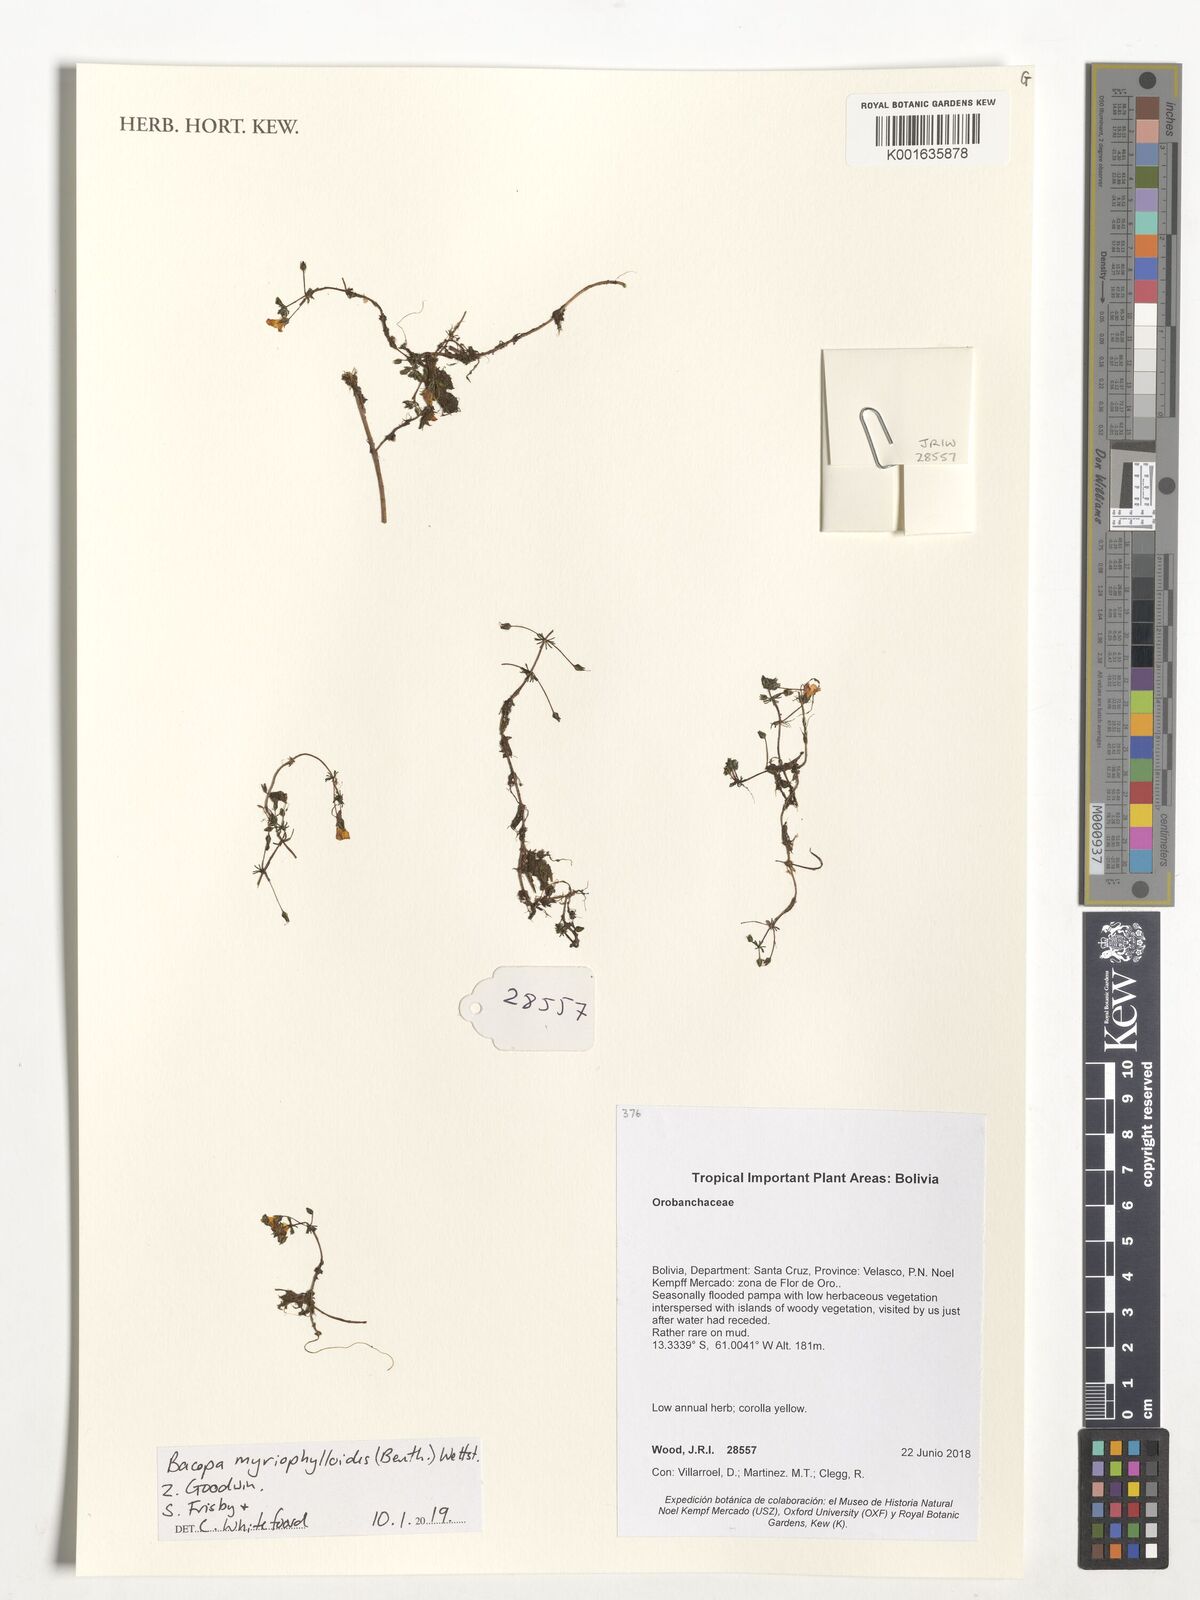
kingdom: Plantae
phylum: Tracheophyta
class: Magnoliopsida
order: Lamiales
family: Plantaginaceae
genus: Bacopa
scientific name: Bacopa myriophylloides
